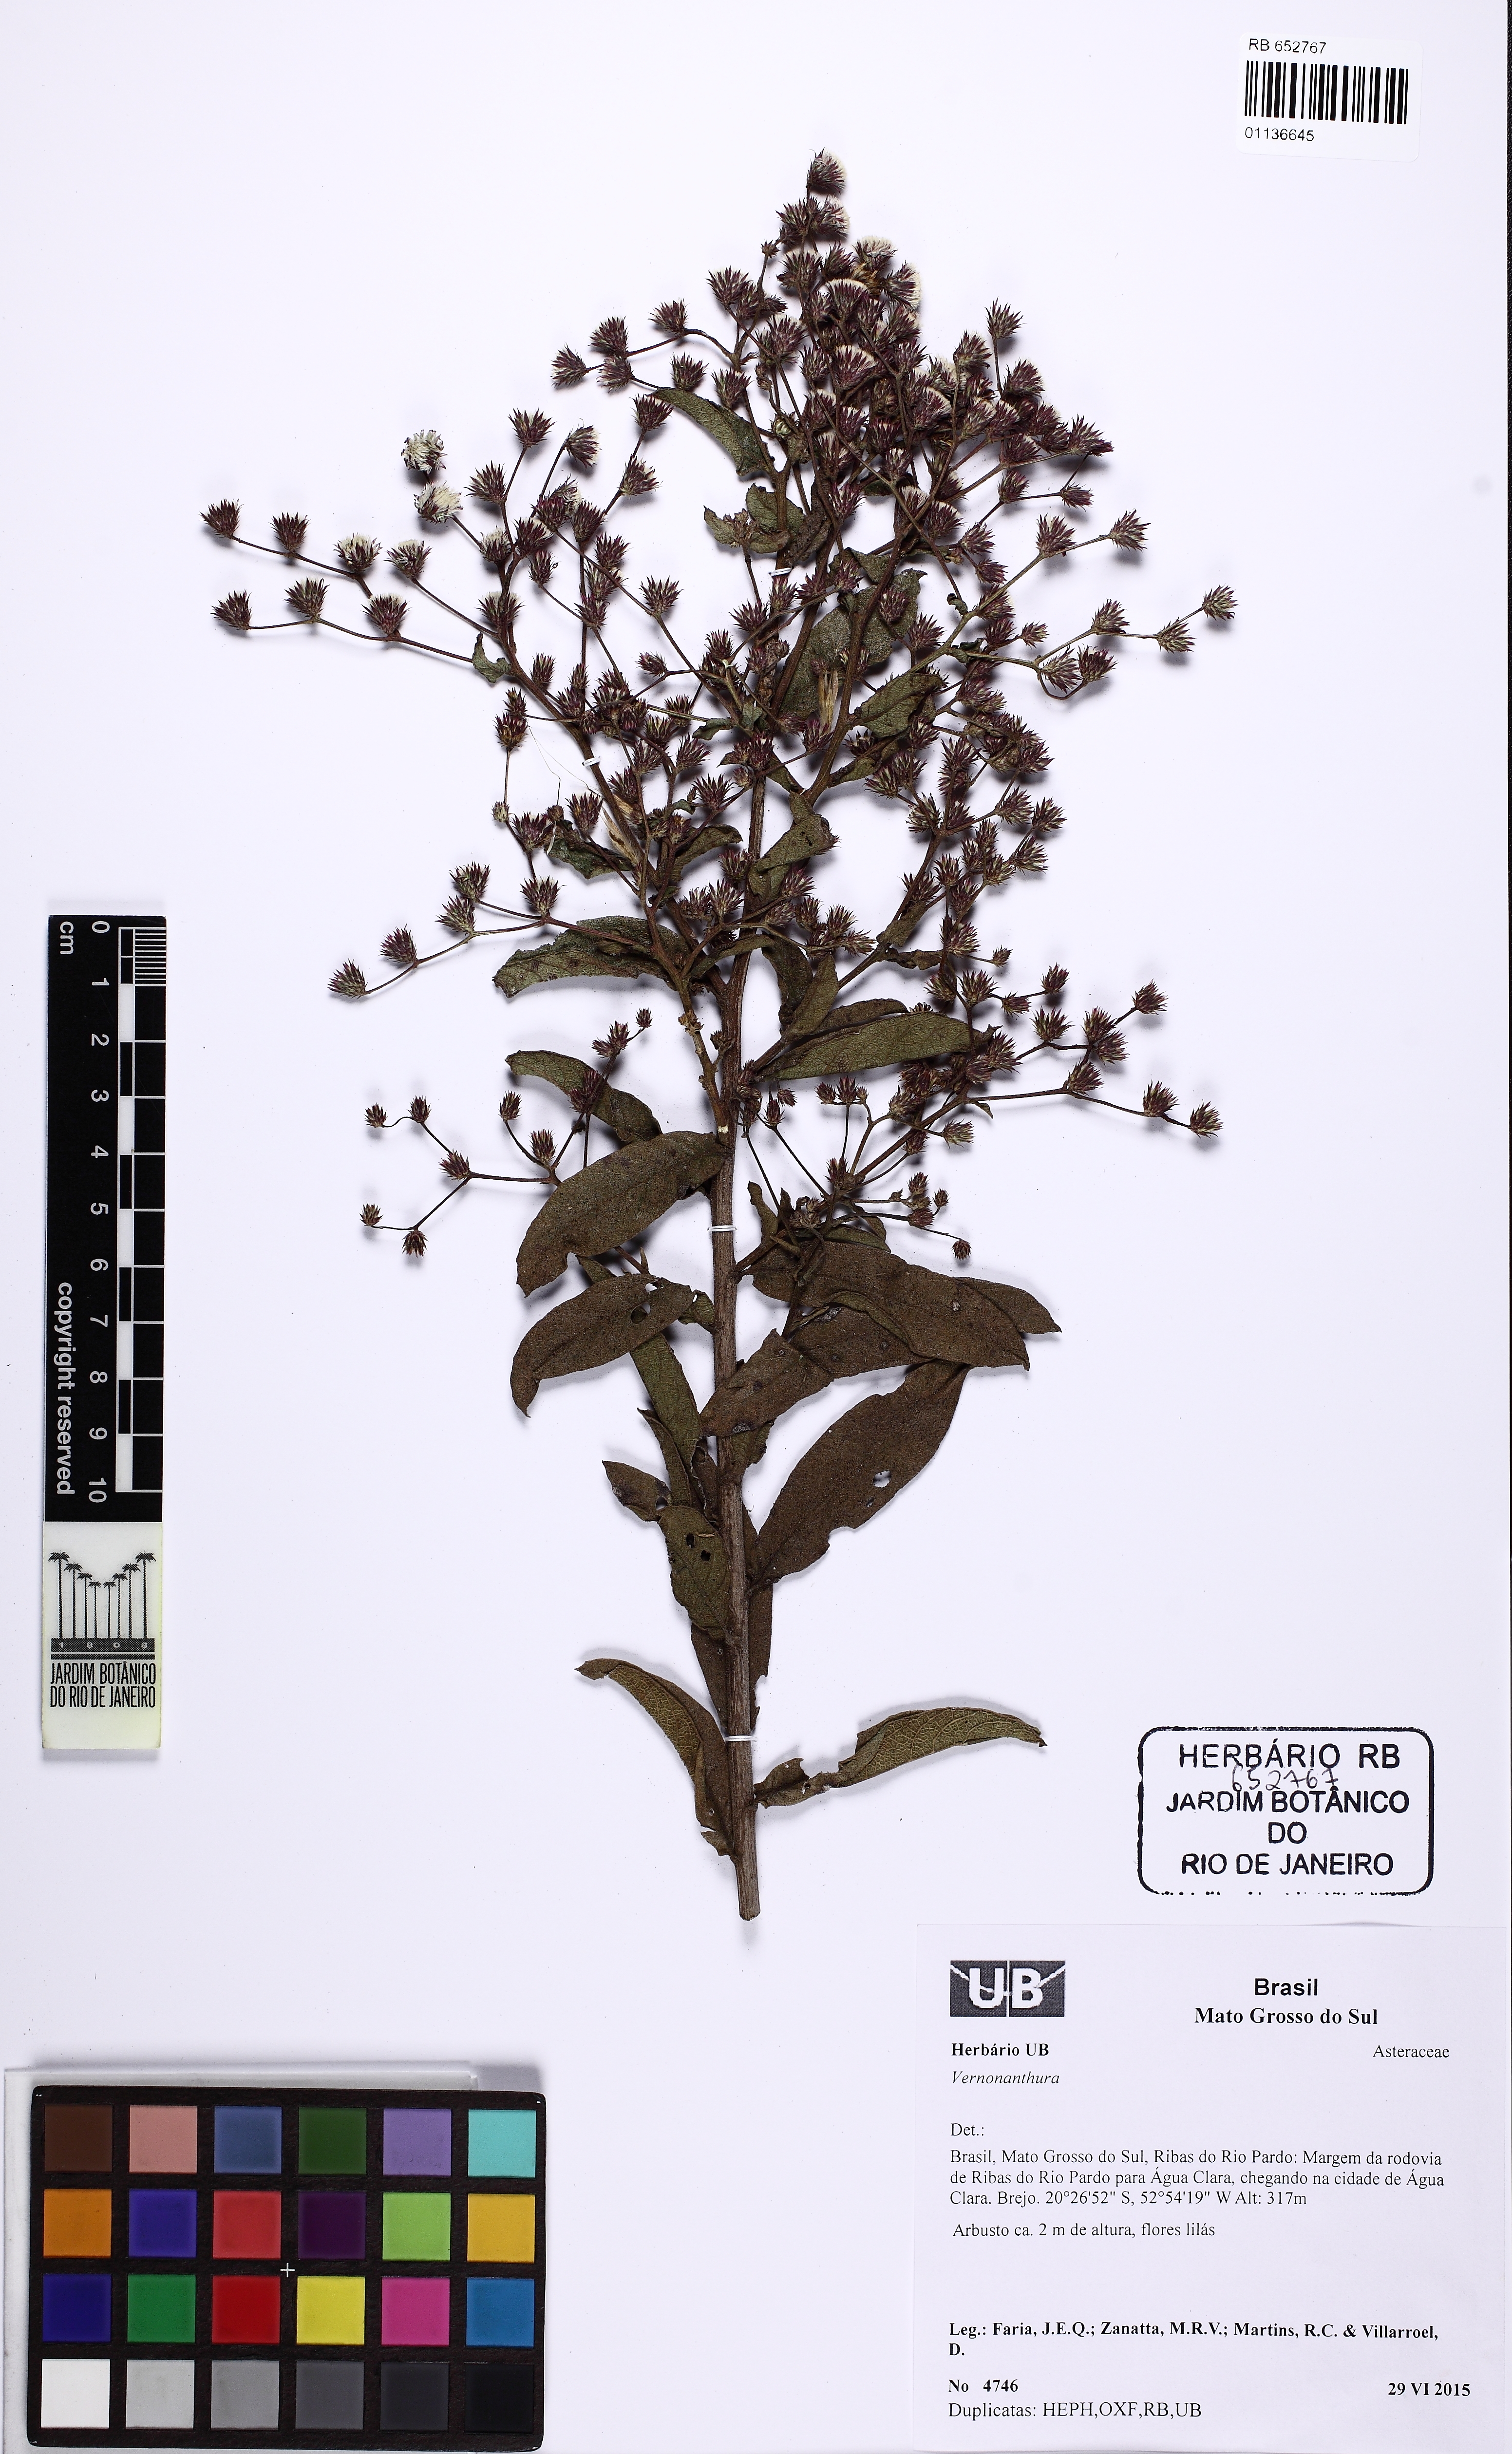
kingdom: Plantae
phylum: Tracheophyta
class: Magnoliopsida
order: Asterales
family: Asteraceae
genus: Vernonanthura
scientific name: Vernonanthura
